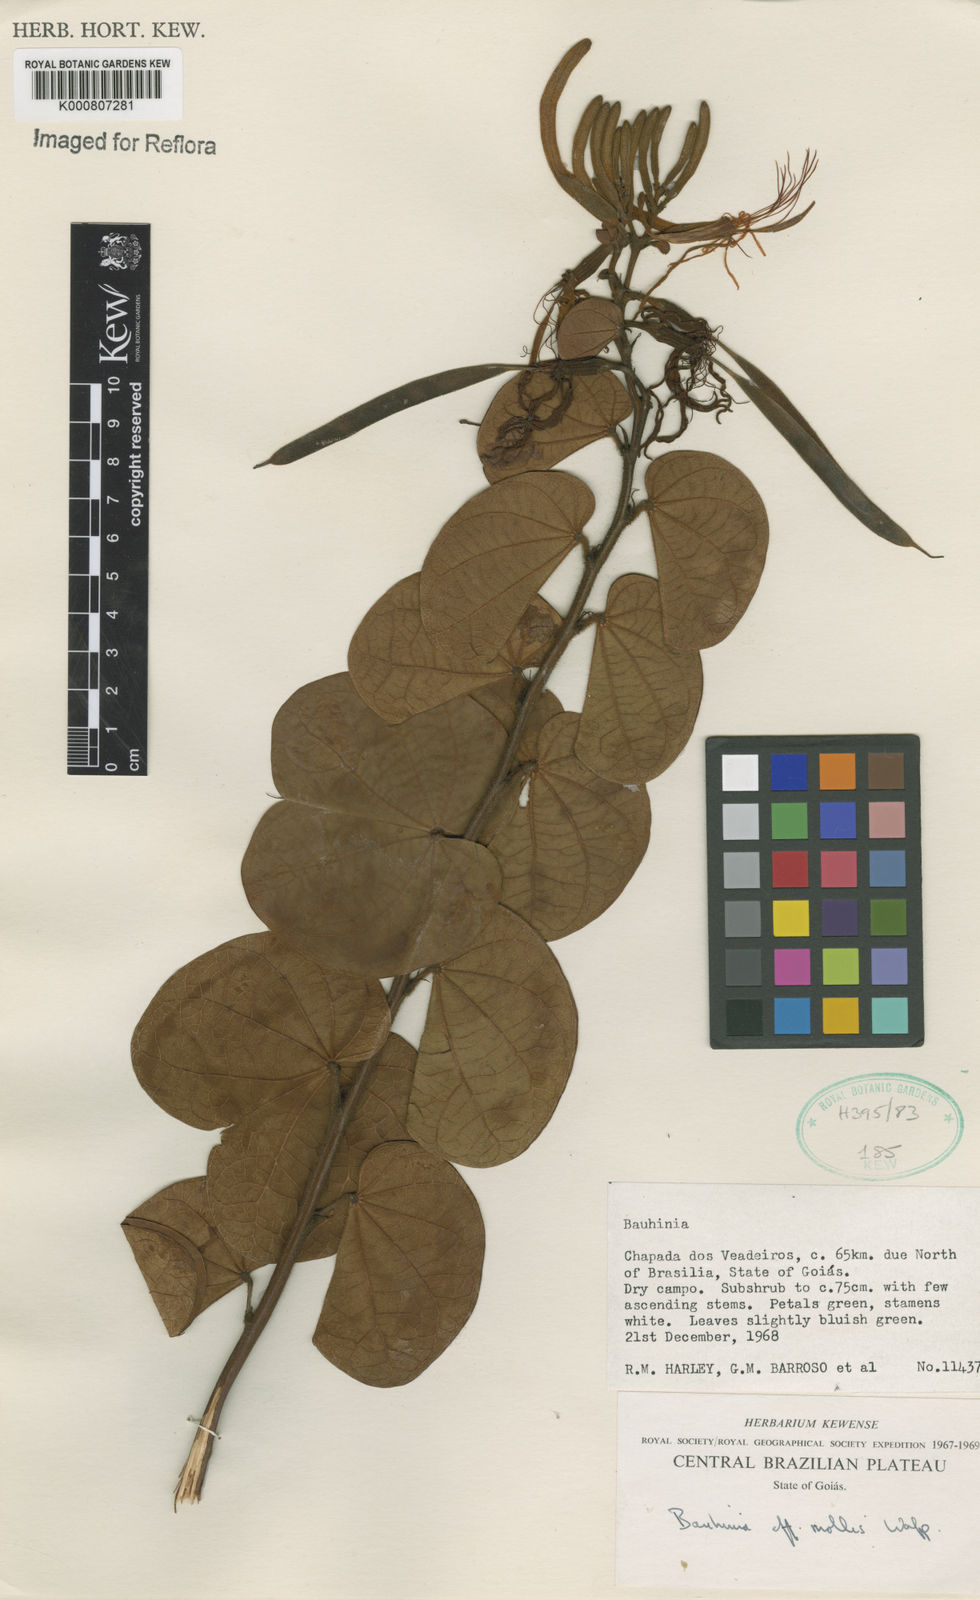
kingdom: Plantae
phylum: Tracheophyta
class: Magnoliopsida
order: Fabales
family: Fabaceae
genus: Bauhinia
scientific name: Bauhinia mollis
